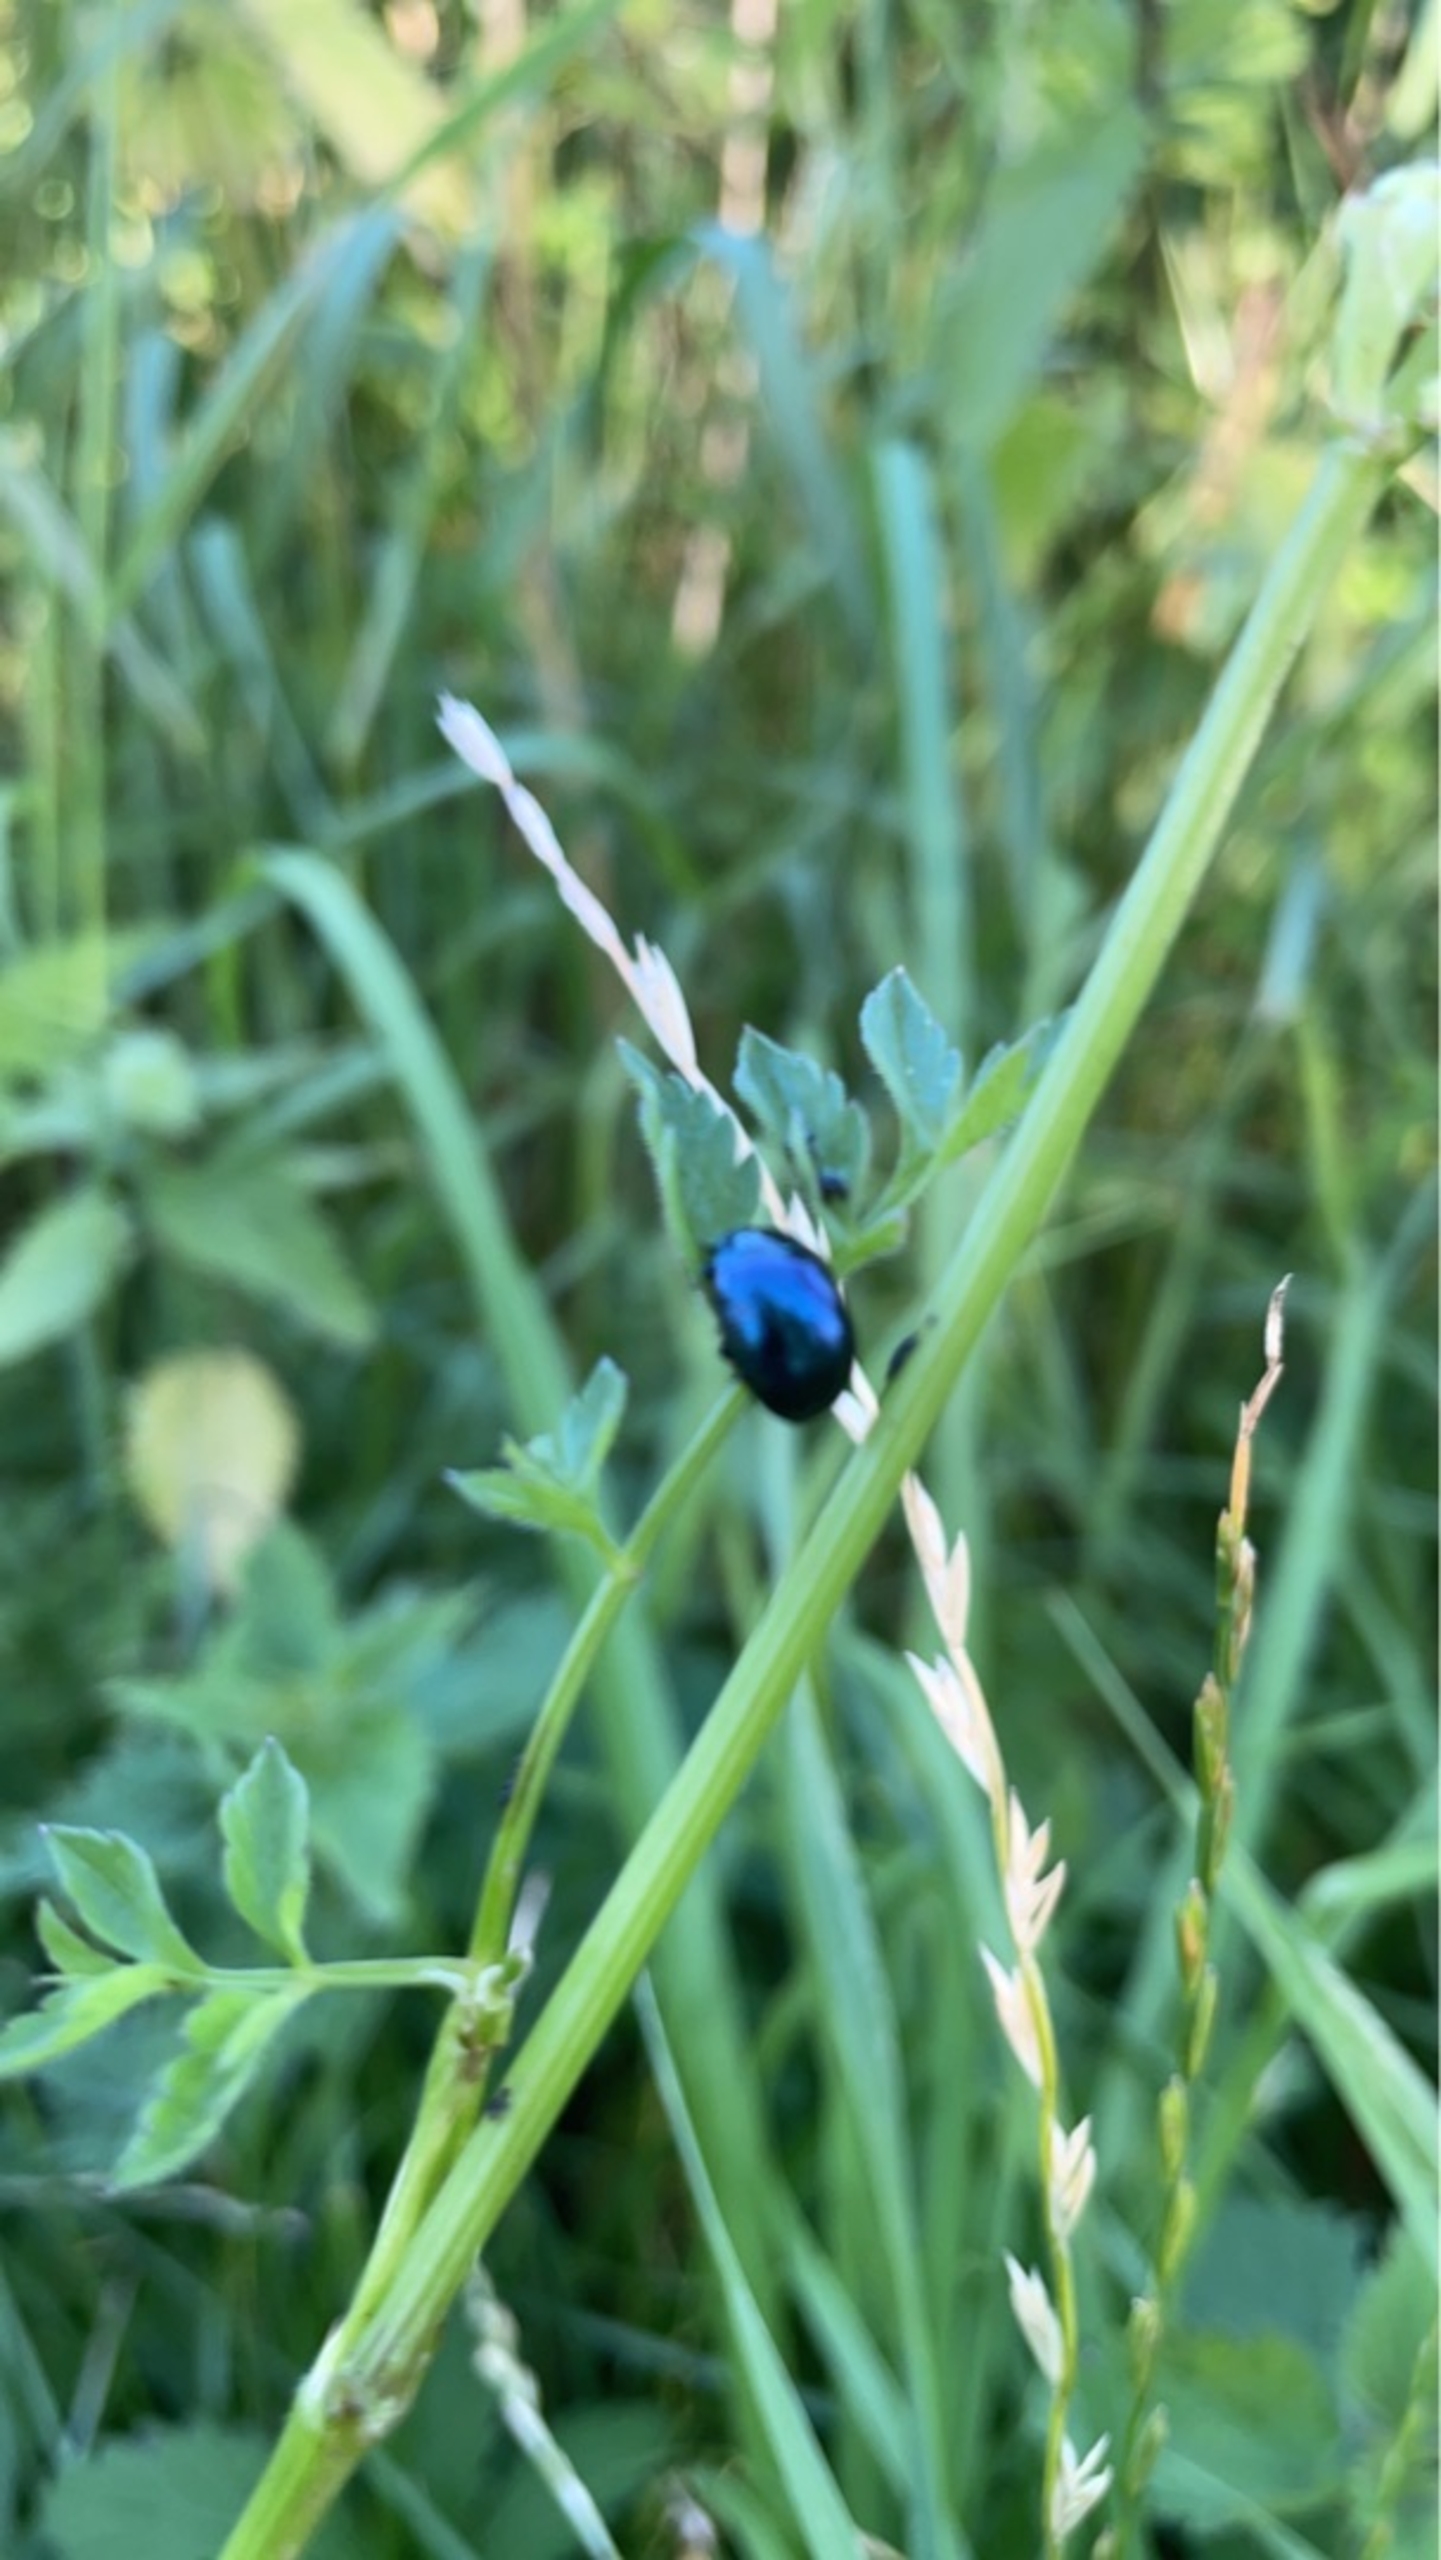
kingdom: Animalia
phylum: Arthropoda
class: Insecta
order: Coleoptera
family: Chrysomelidae
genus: Agelastica
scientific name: Agelastica alni
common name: Ellebladbille
